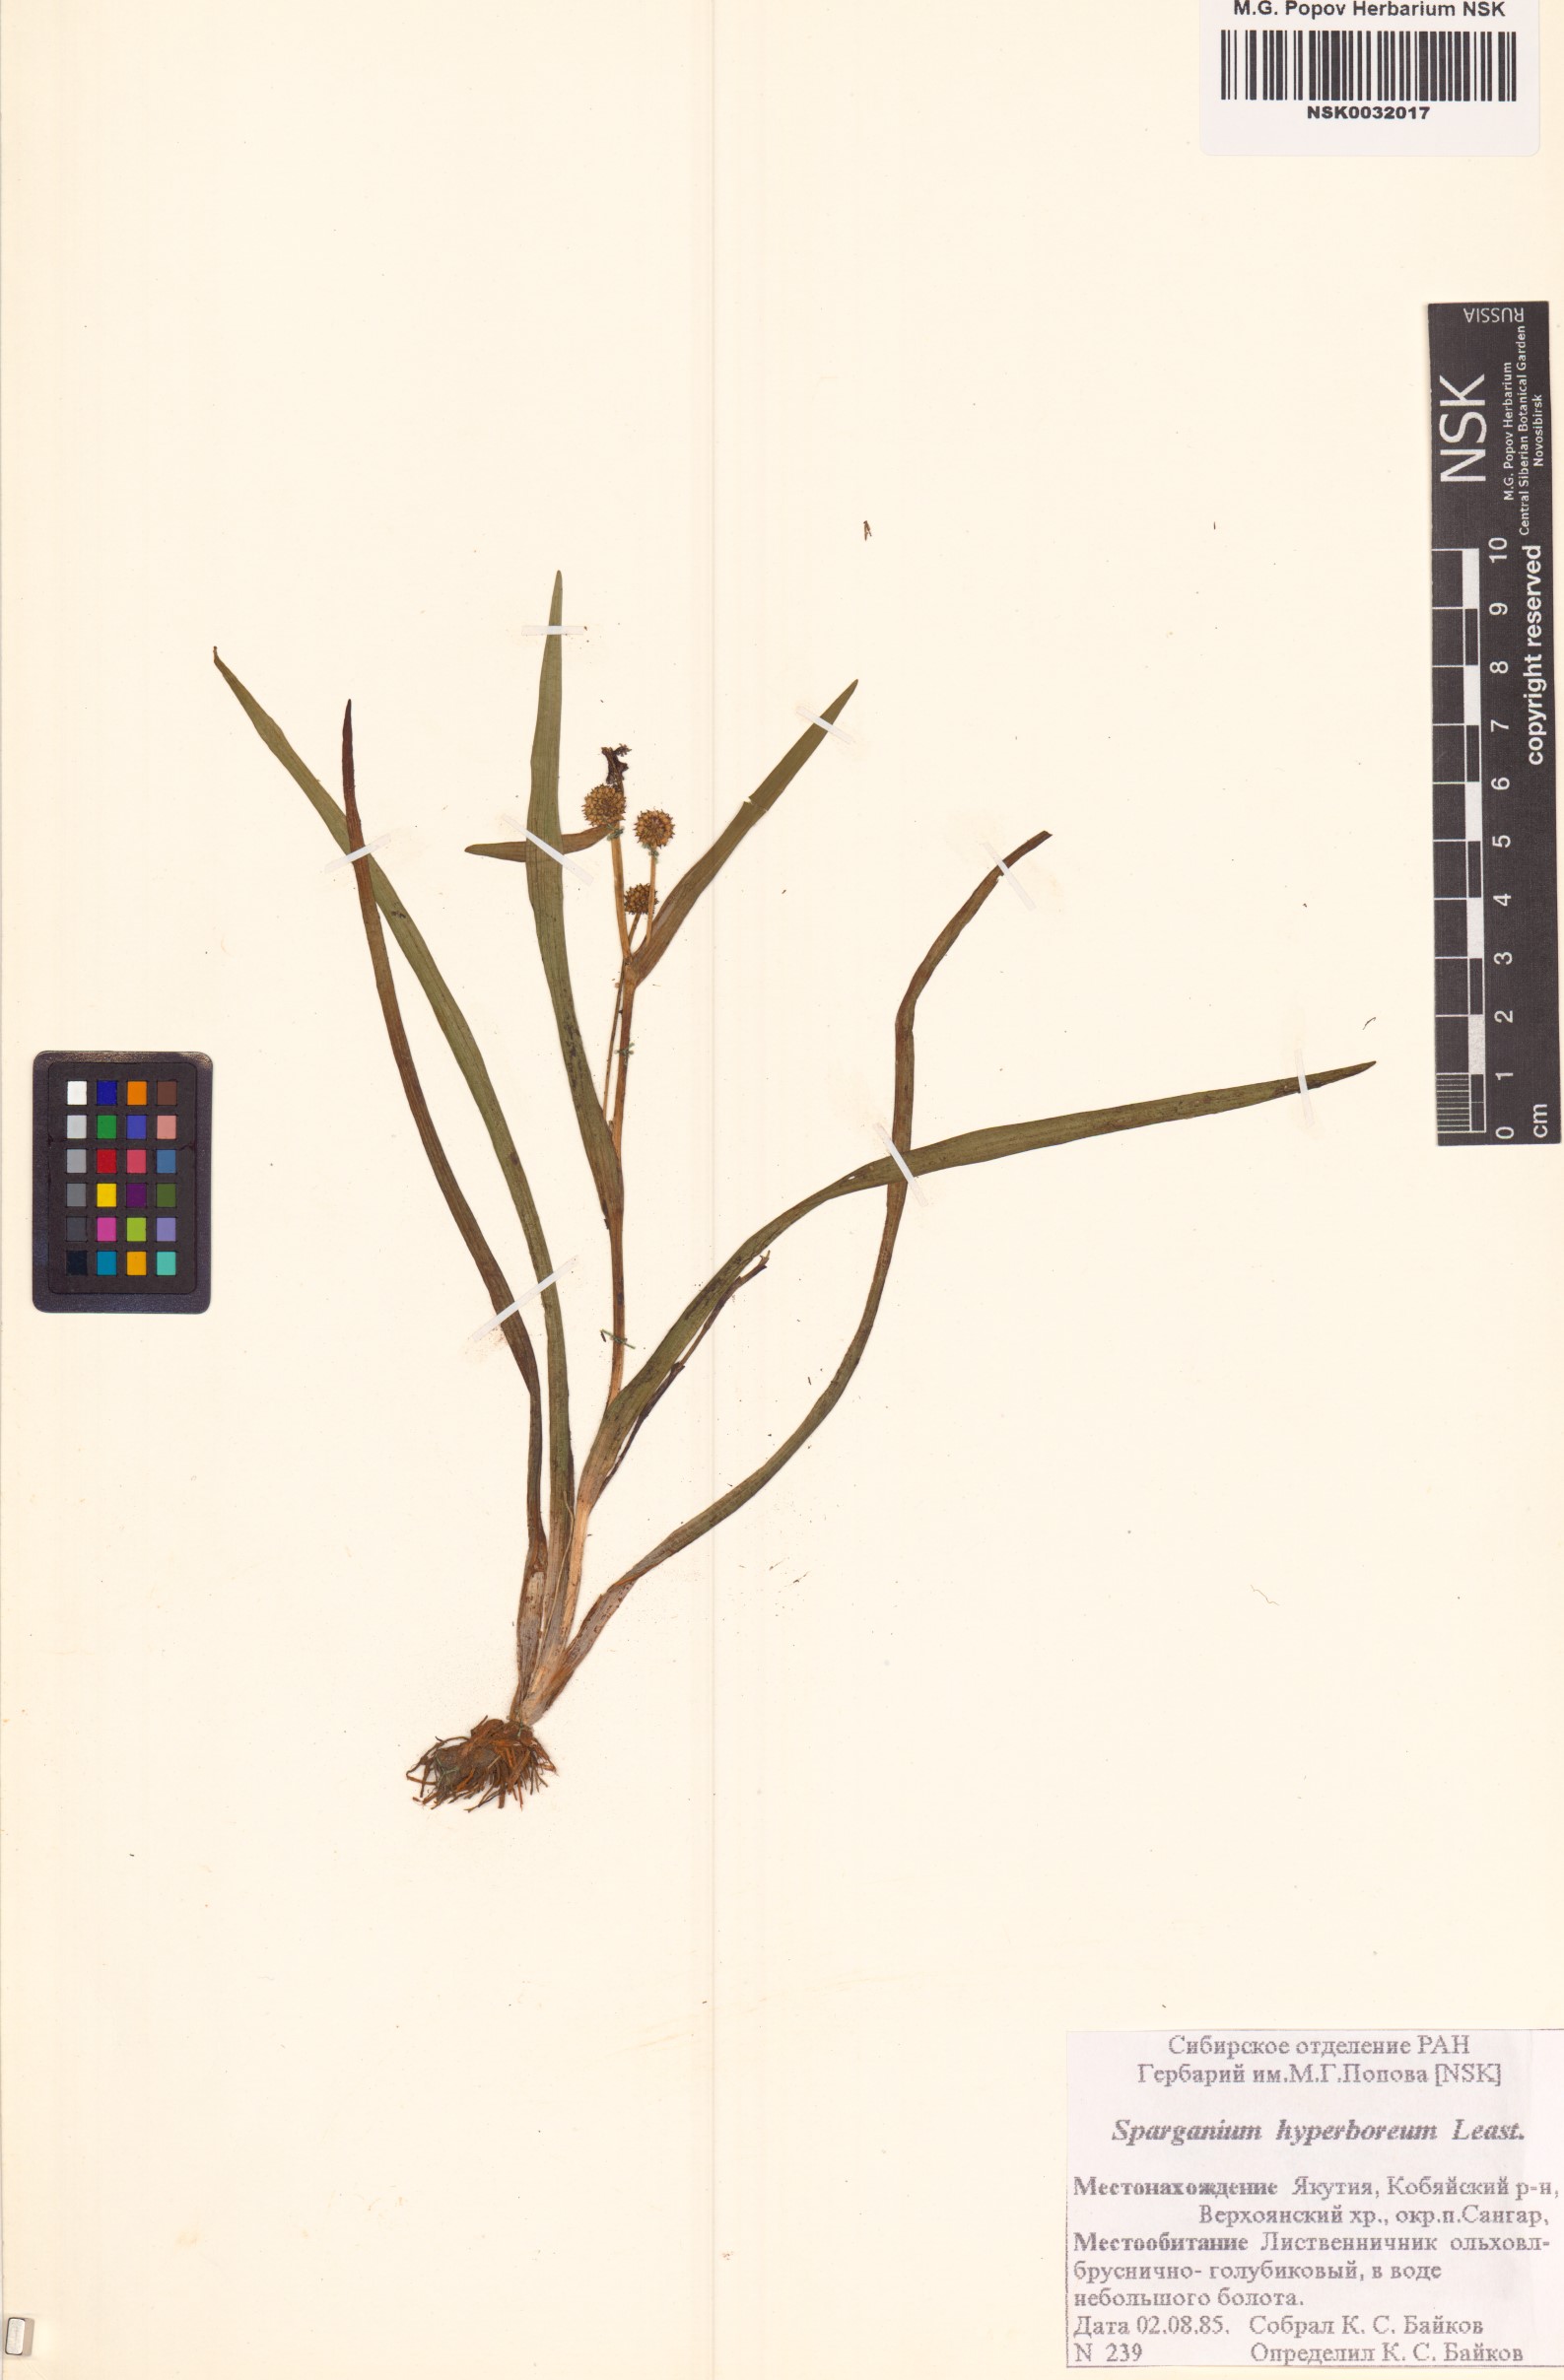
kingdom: Plantae
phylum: Tracheophyta
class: Liliopsida
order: Poales
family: Typhaceae
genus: Sparganium
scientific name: Sparganium hyperboreum
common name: Arctic burreed
